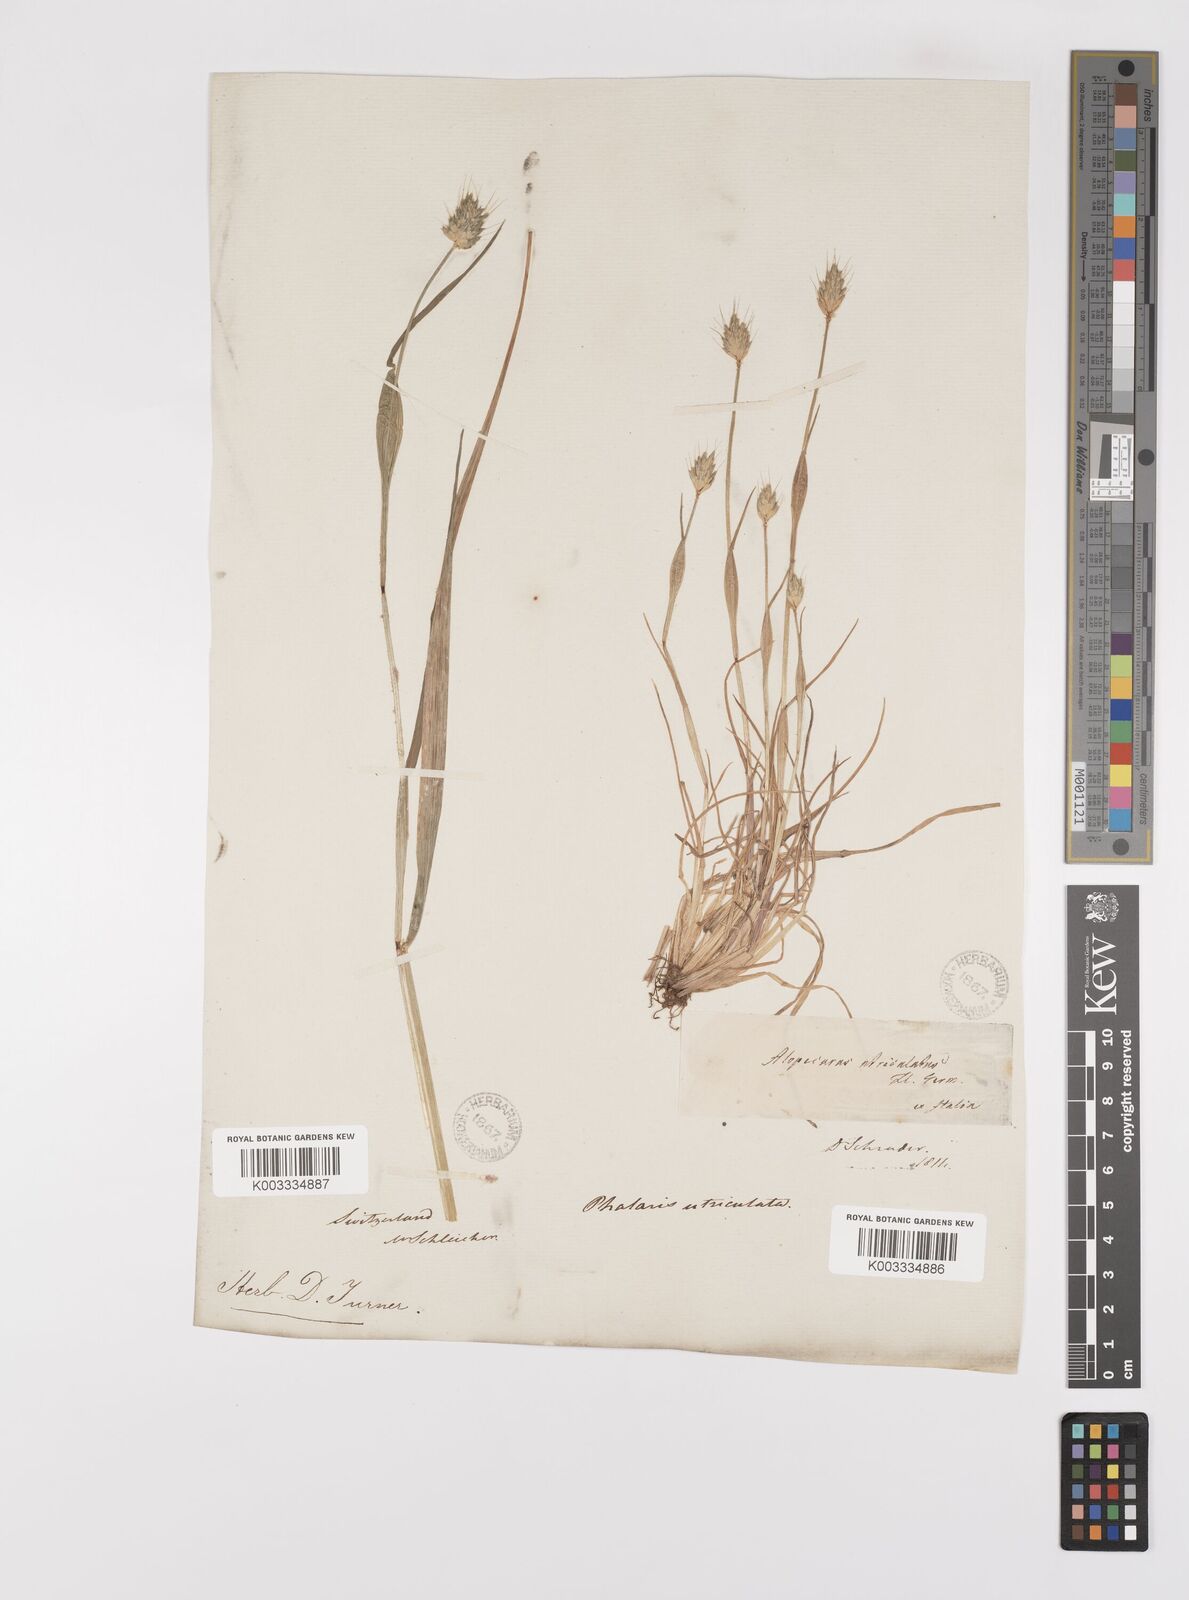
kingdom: Plantae
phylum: Tracheophyta
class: Liliopsida
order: Poales
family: Poaceae
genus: Alopecurus
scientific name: Alopecurus rendlei
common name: Rendle's meadow foxtail
